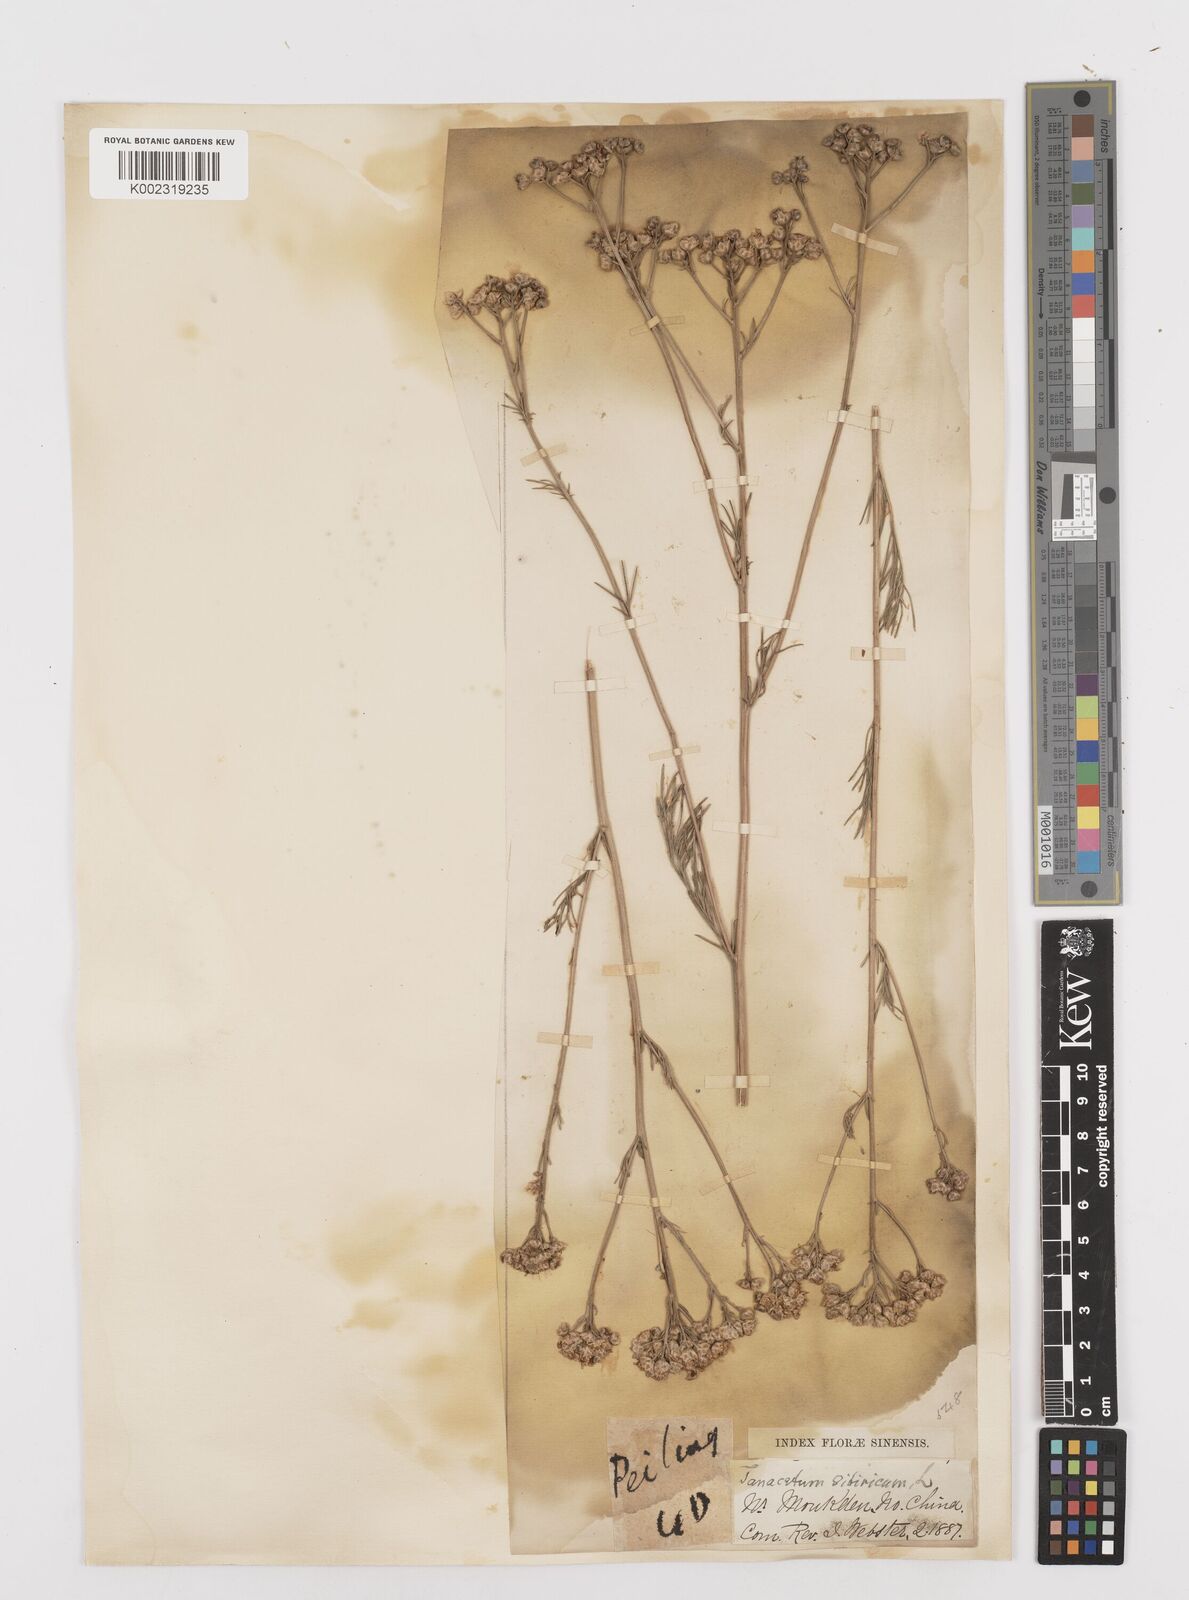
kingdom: Plantae
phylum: Tracheophyta
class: Magnoliopsida
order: Asterales
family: Asteraceae
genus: Filifolium
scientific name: Filifolium sibiricum
